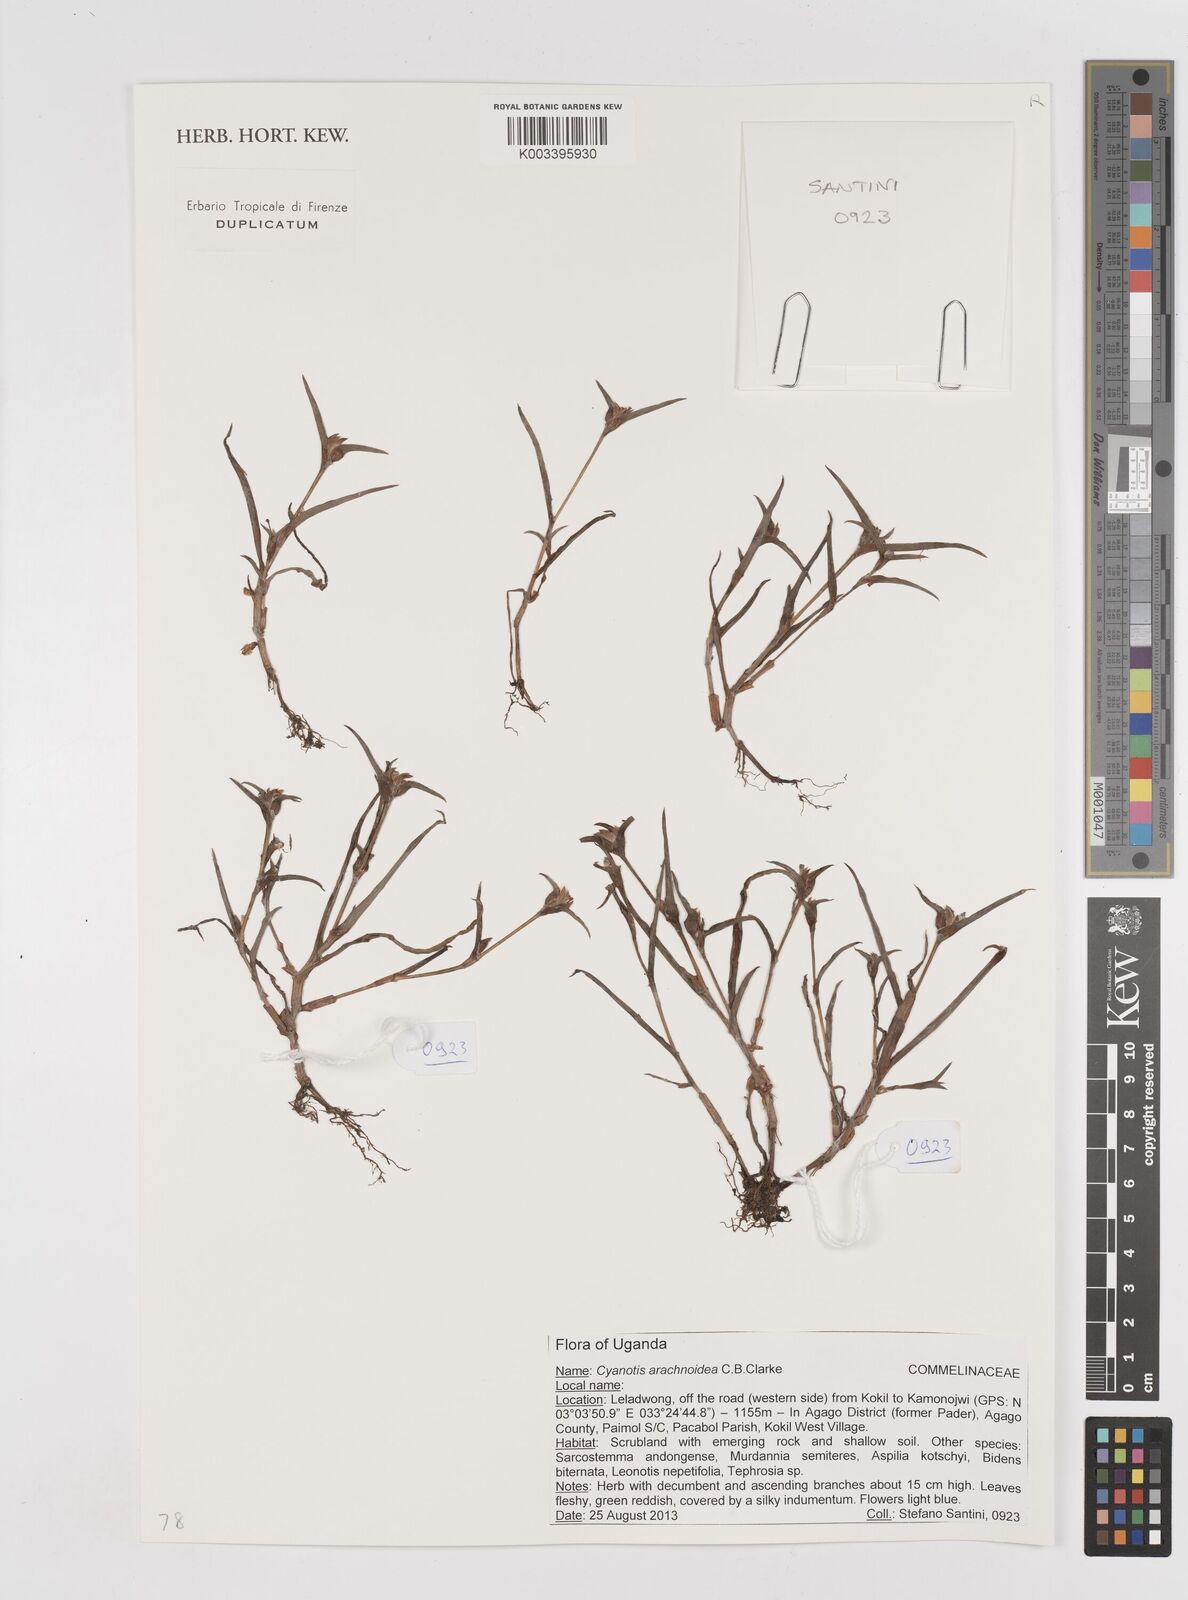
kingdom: Plantae
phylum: Tracheophyta
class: Liliopsida
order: Commelinales
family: Commelinaceae
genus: Cyanotis
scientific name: Cyanotis arachnoidea
